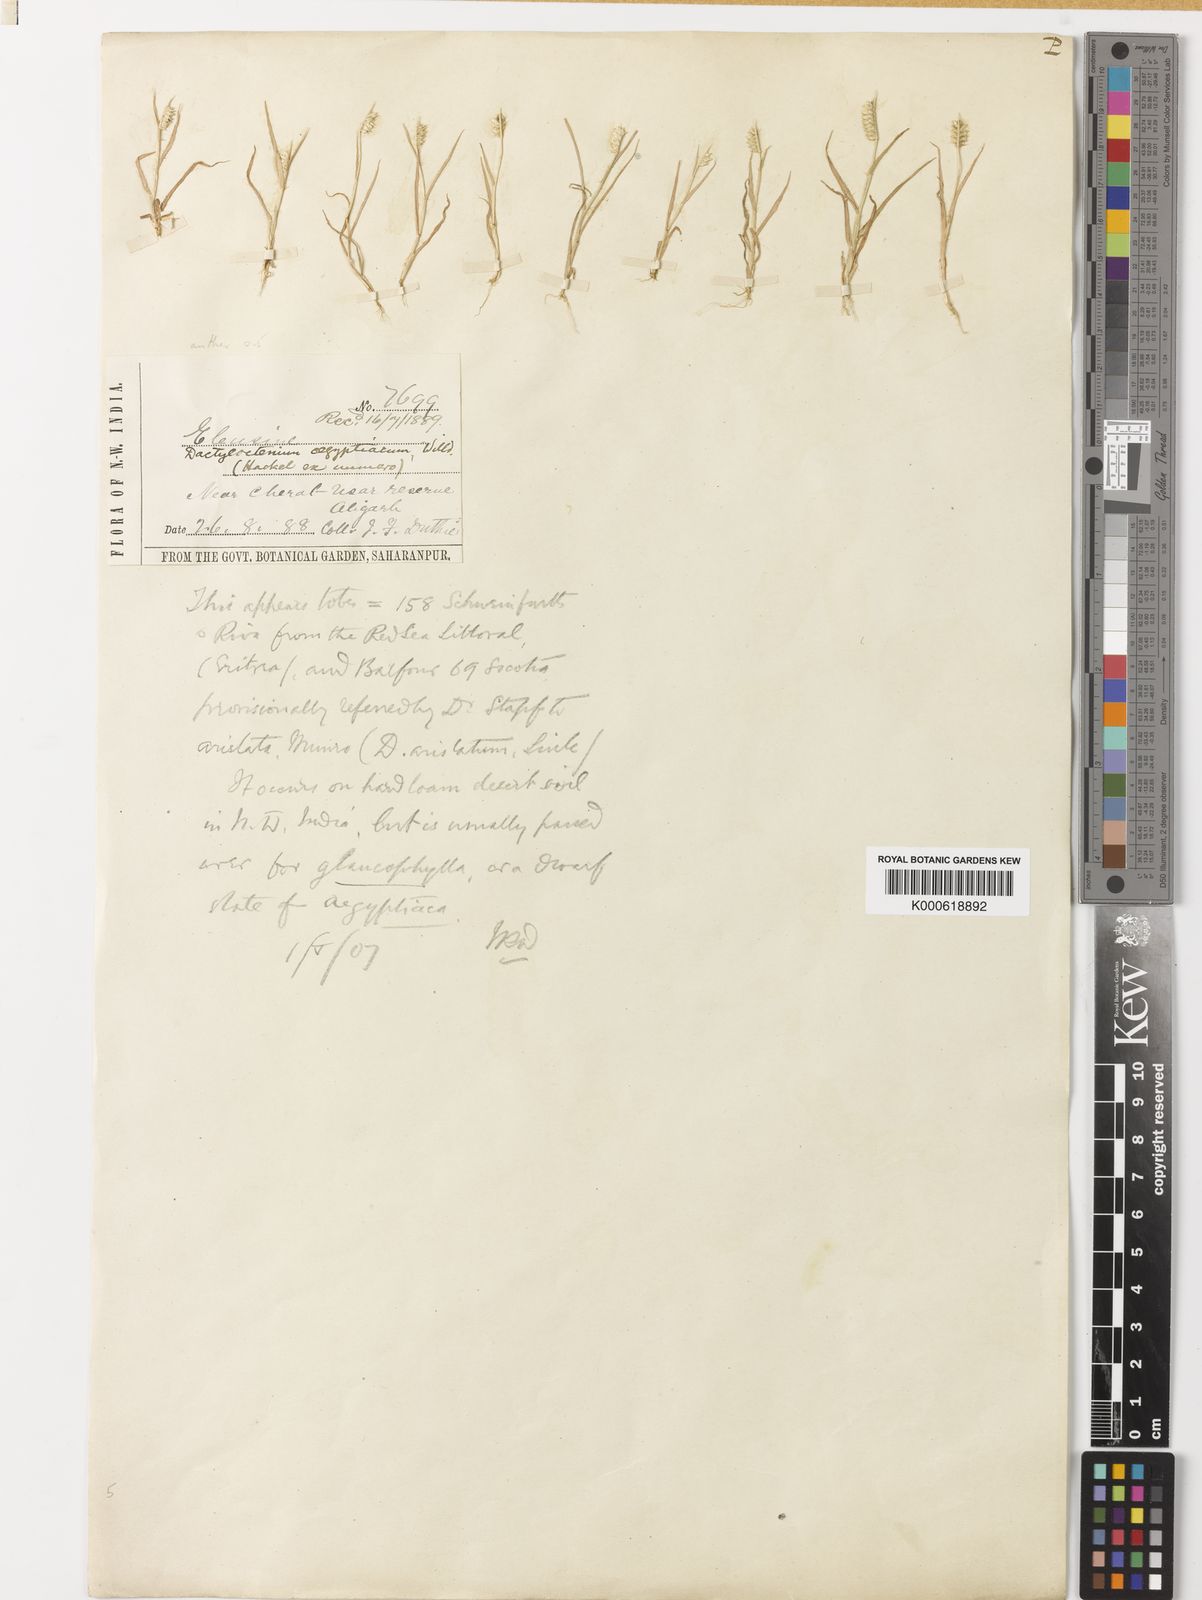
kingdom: Plantae
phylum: Tracheophyta
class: Liliopsida
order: Poales
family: Poaceae
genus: Dactyloctenium
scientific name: Dactyloctenium aristatum
